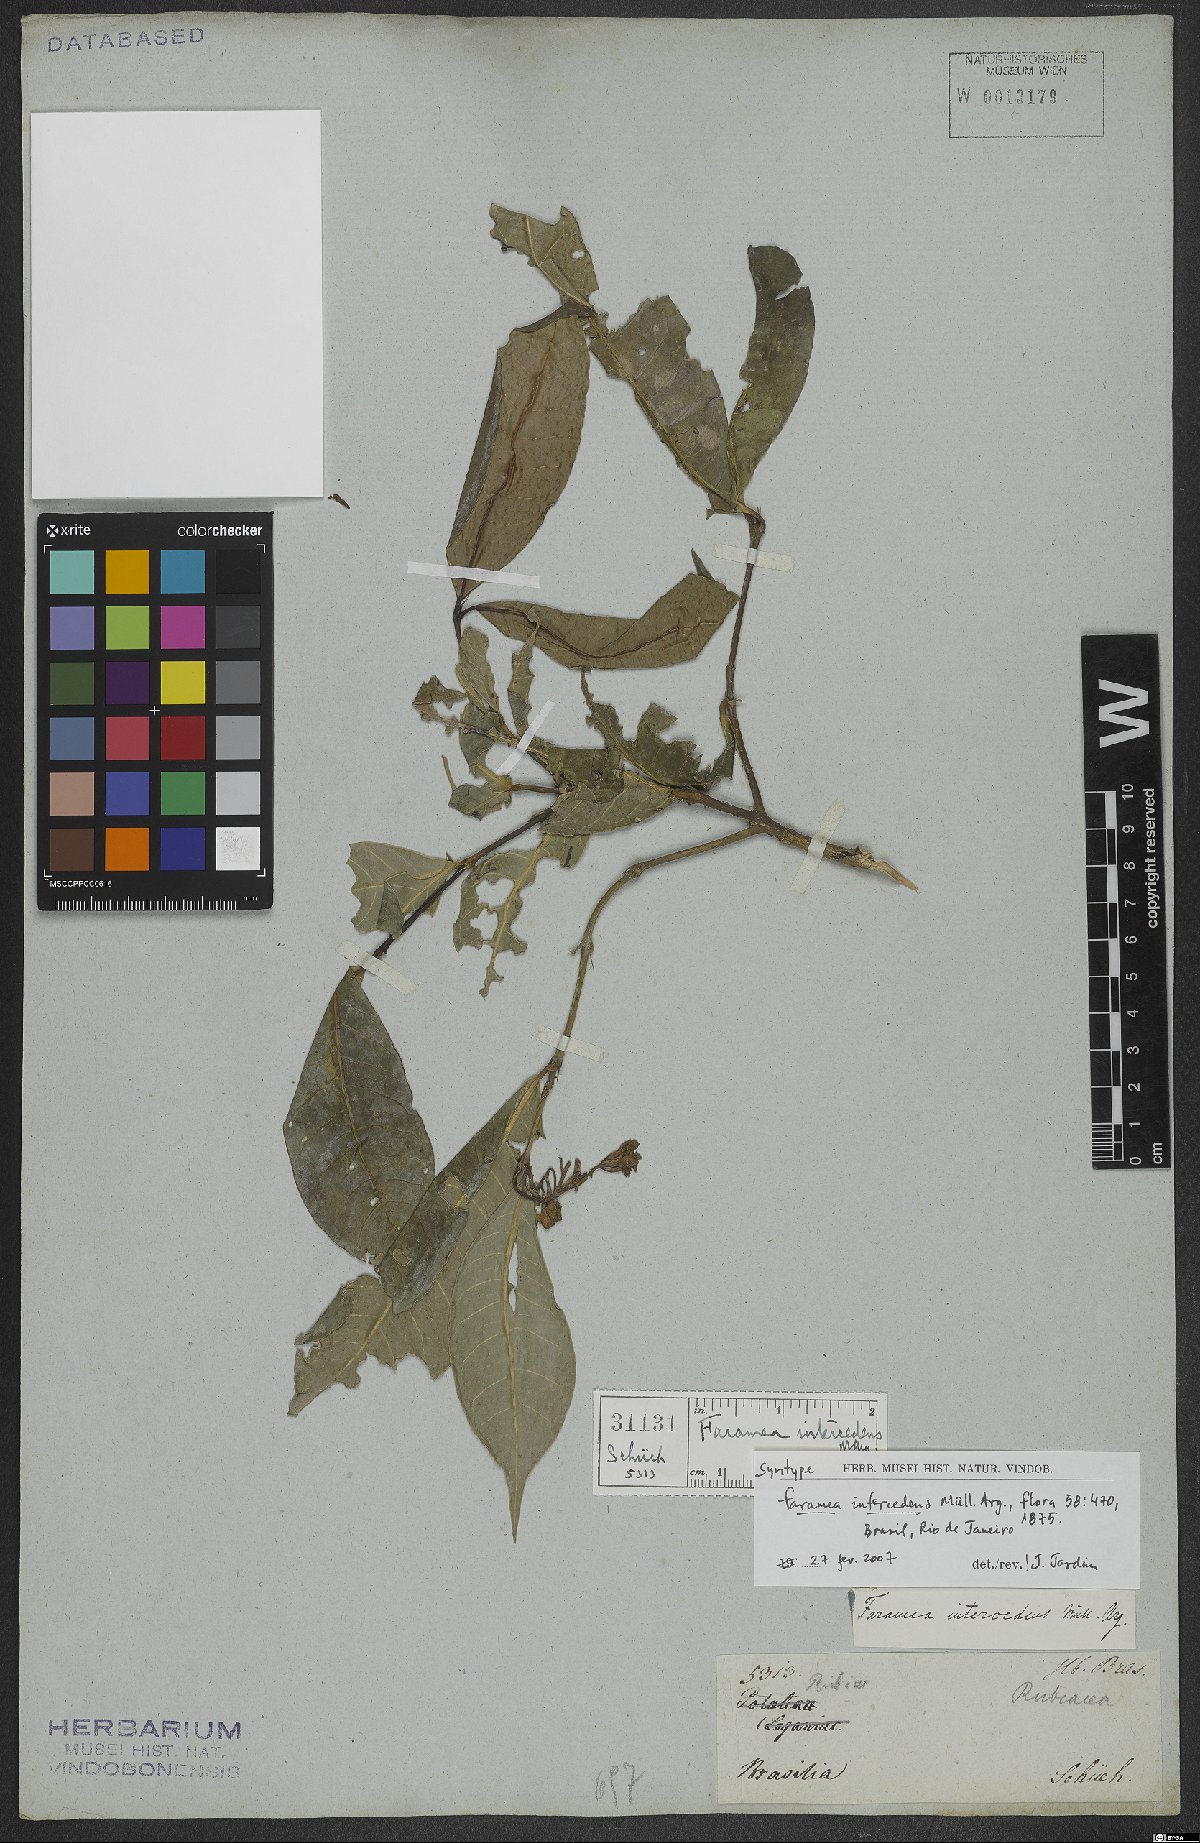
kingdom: Plantae
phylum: Tracheophyta
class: Magnoliopsida
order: Gentianales
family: Rubiaceae
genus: Faramea
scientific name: Faramea intercedens
